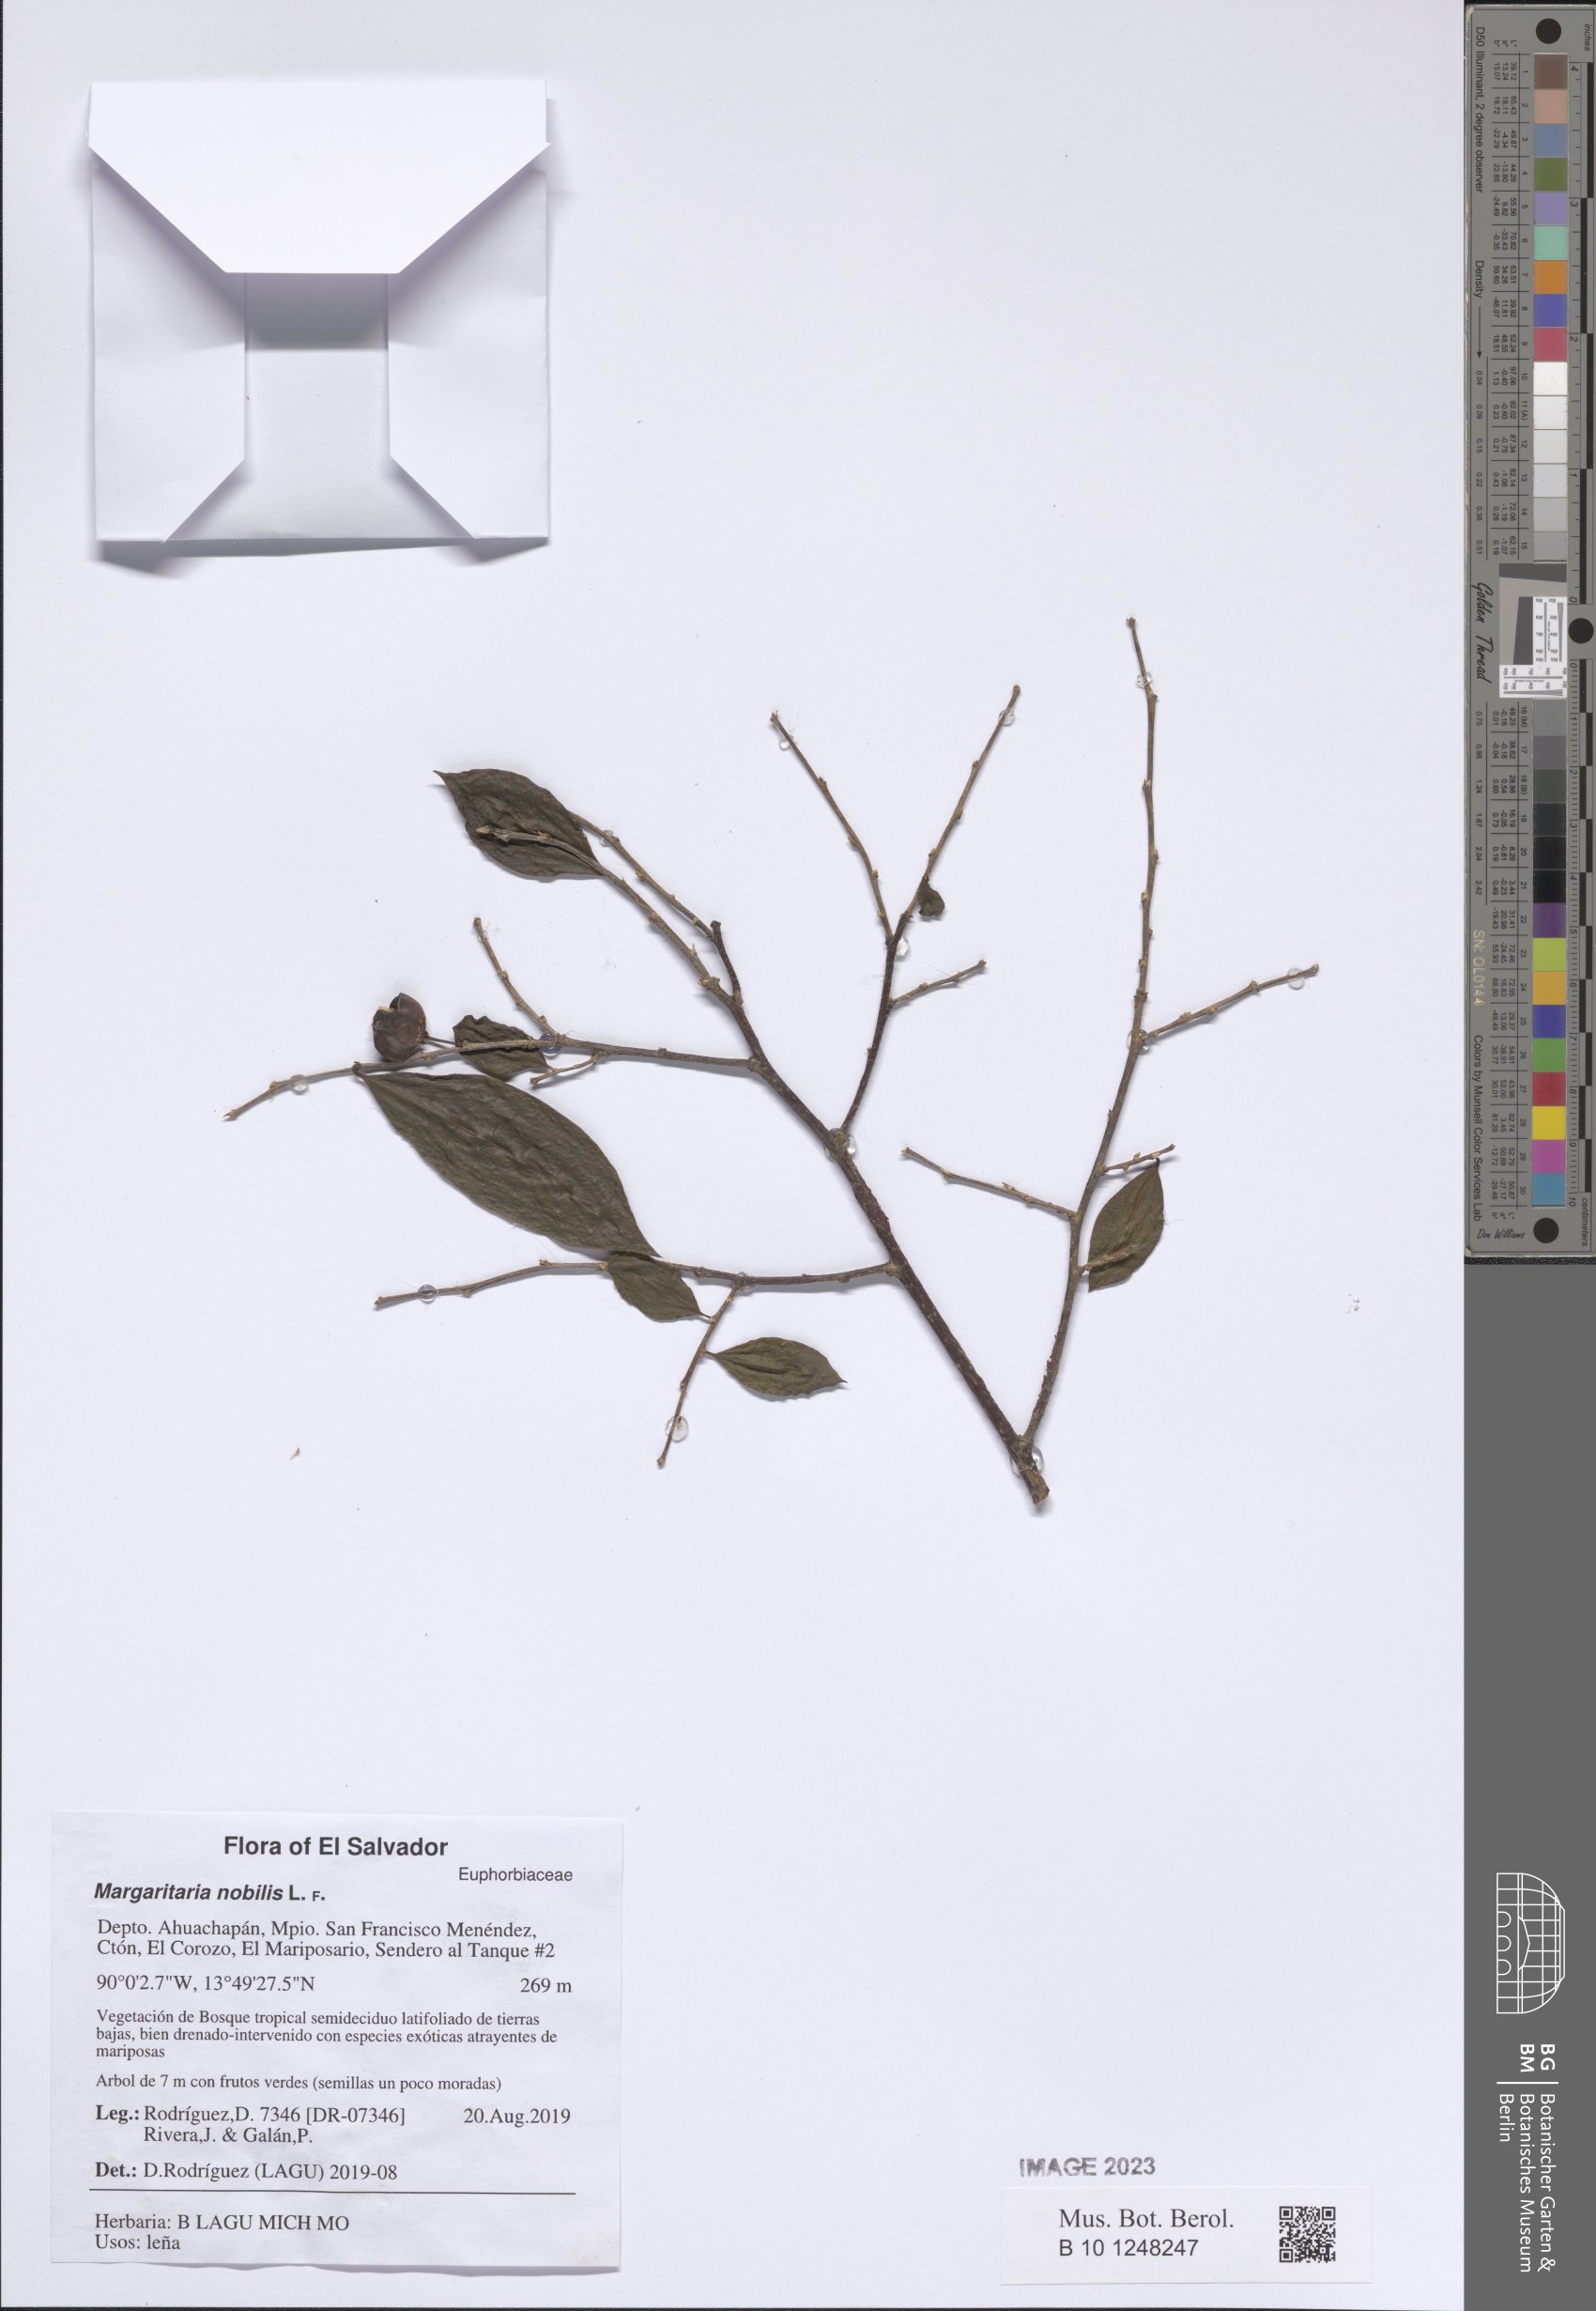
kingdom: Plantae
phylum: Tracheophyta
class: Magnoliopsida
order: Malpighiales
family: Phyllanthaceae
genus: Margaritaria
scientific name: Margaritaria nobilis
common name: Goose berry
